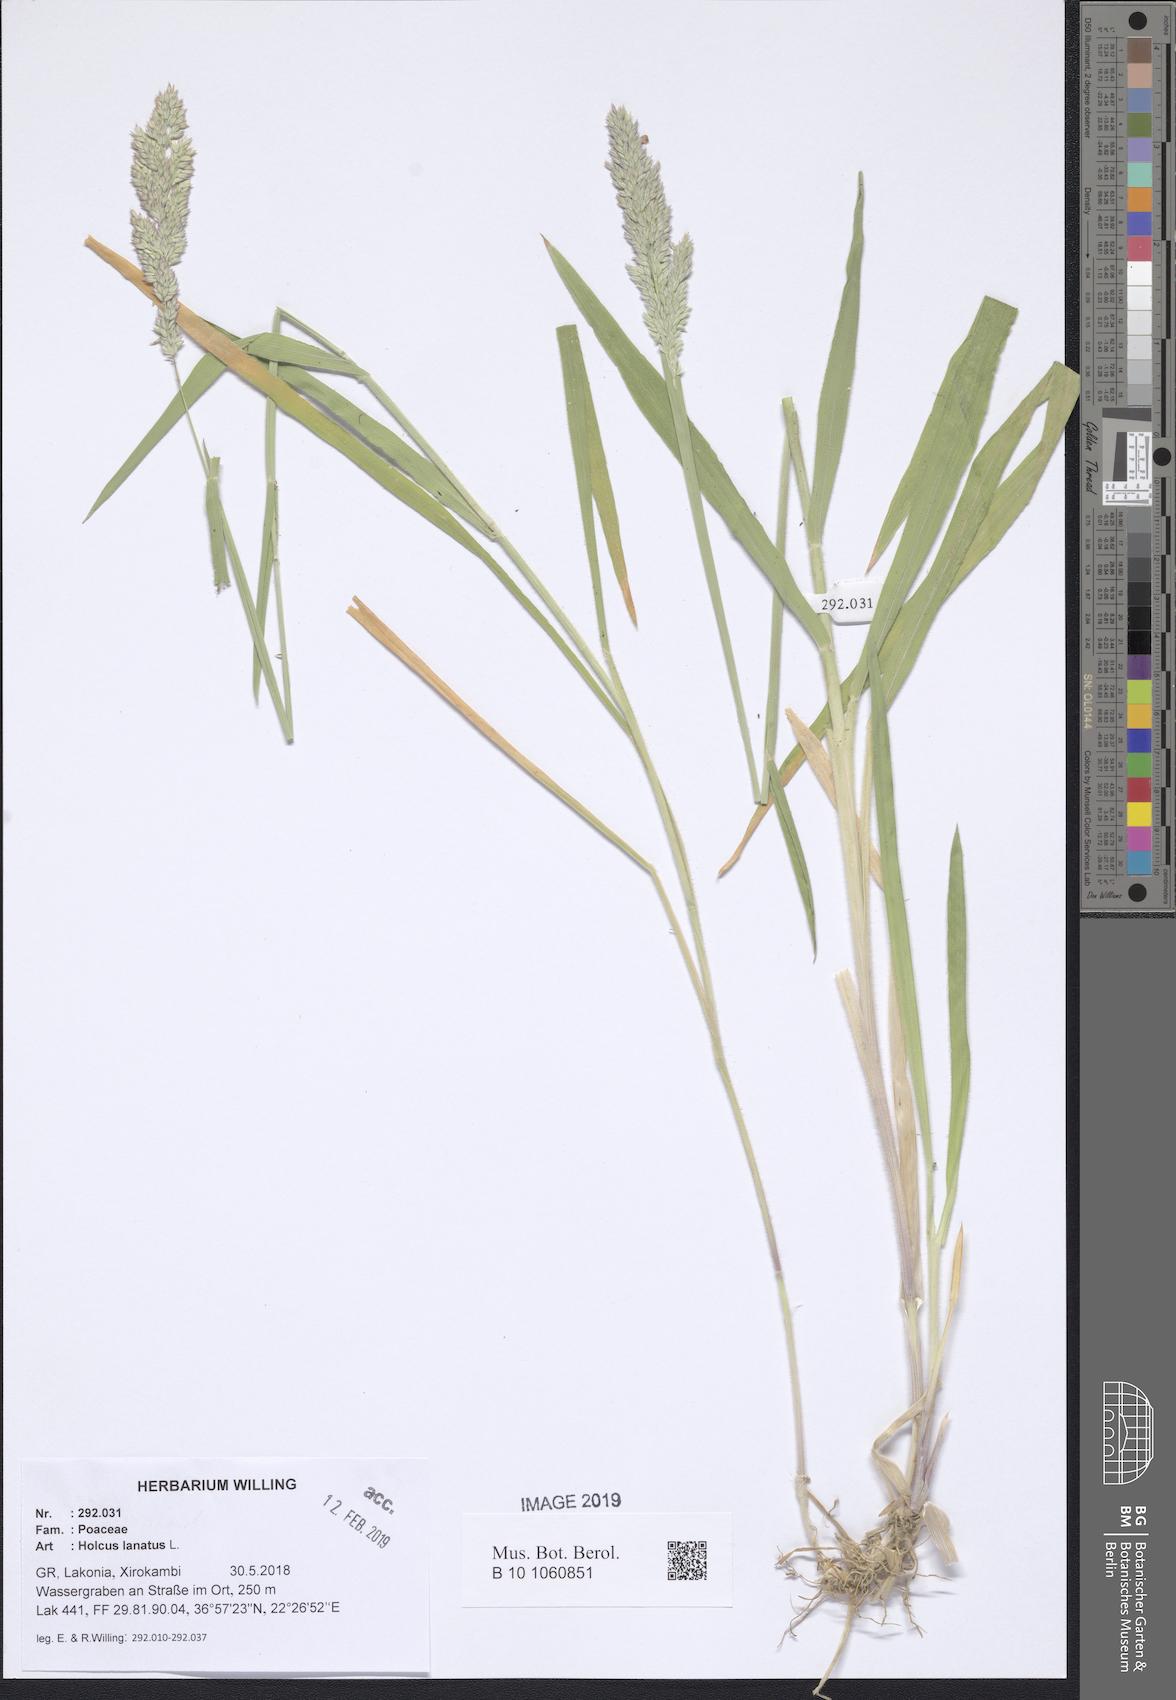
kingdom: Plantae
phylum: Tracheophyta
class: Liliopsida
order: Poales
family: Poaceae
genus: Holcus
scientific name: Holcus lanatus
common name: Yorkshire-fog
